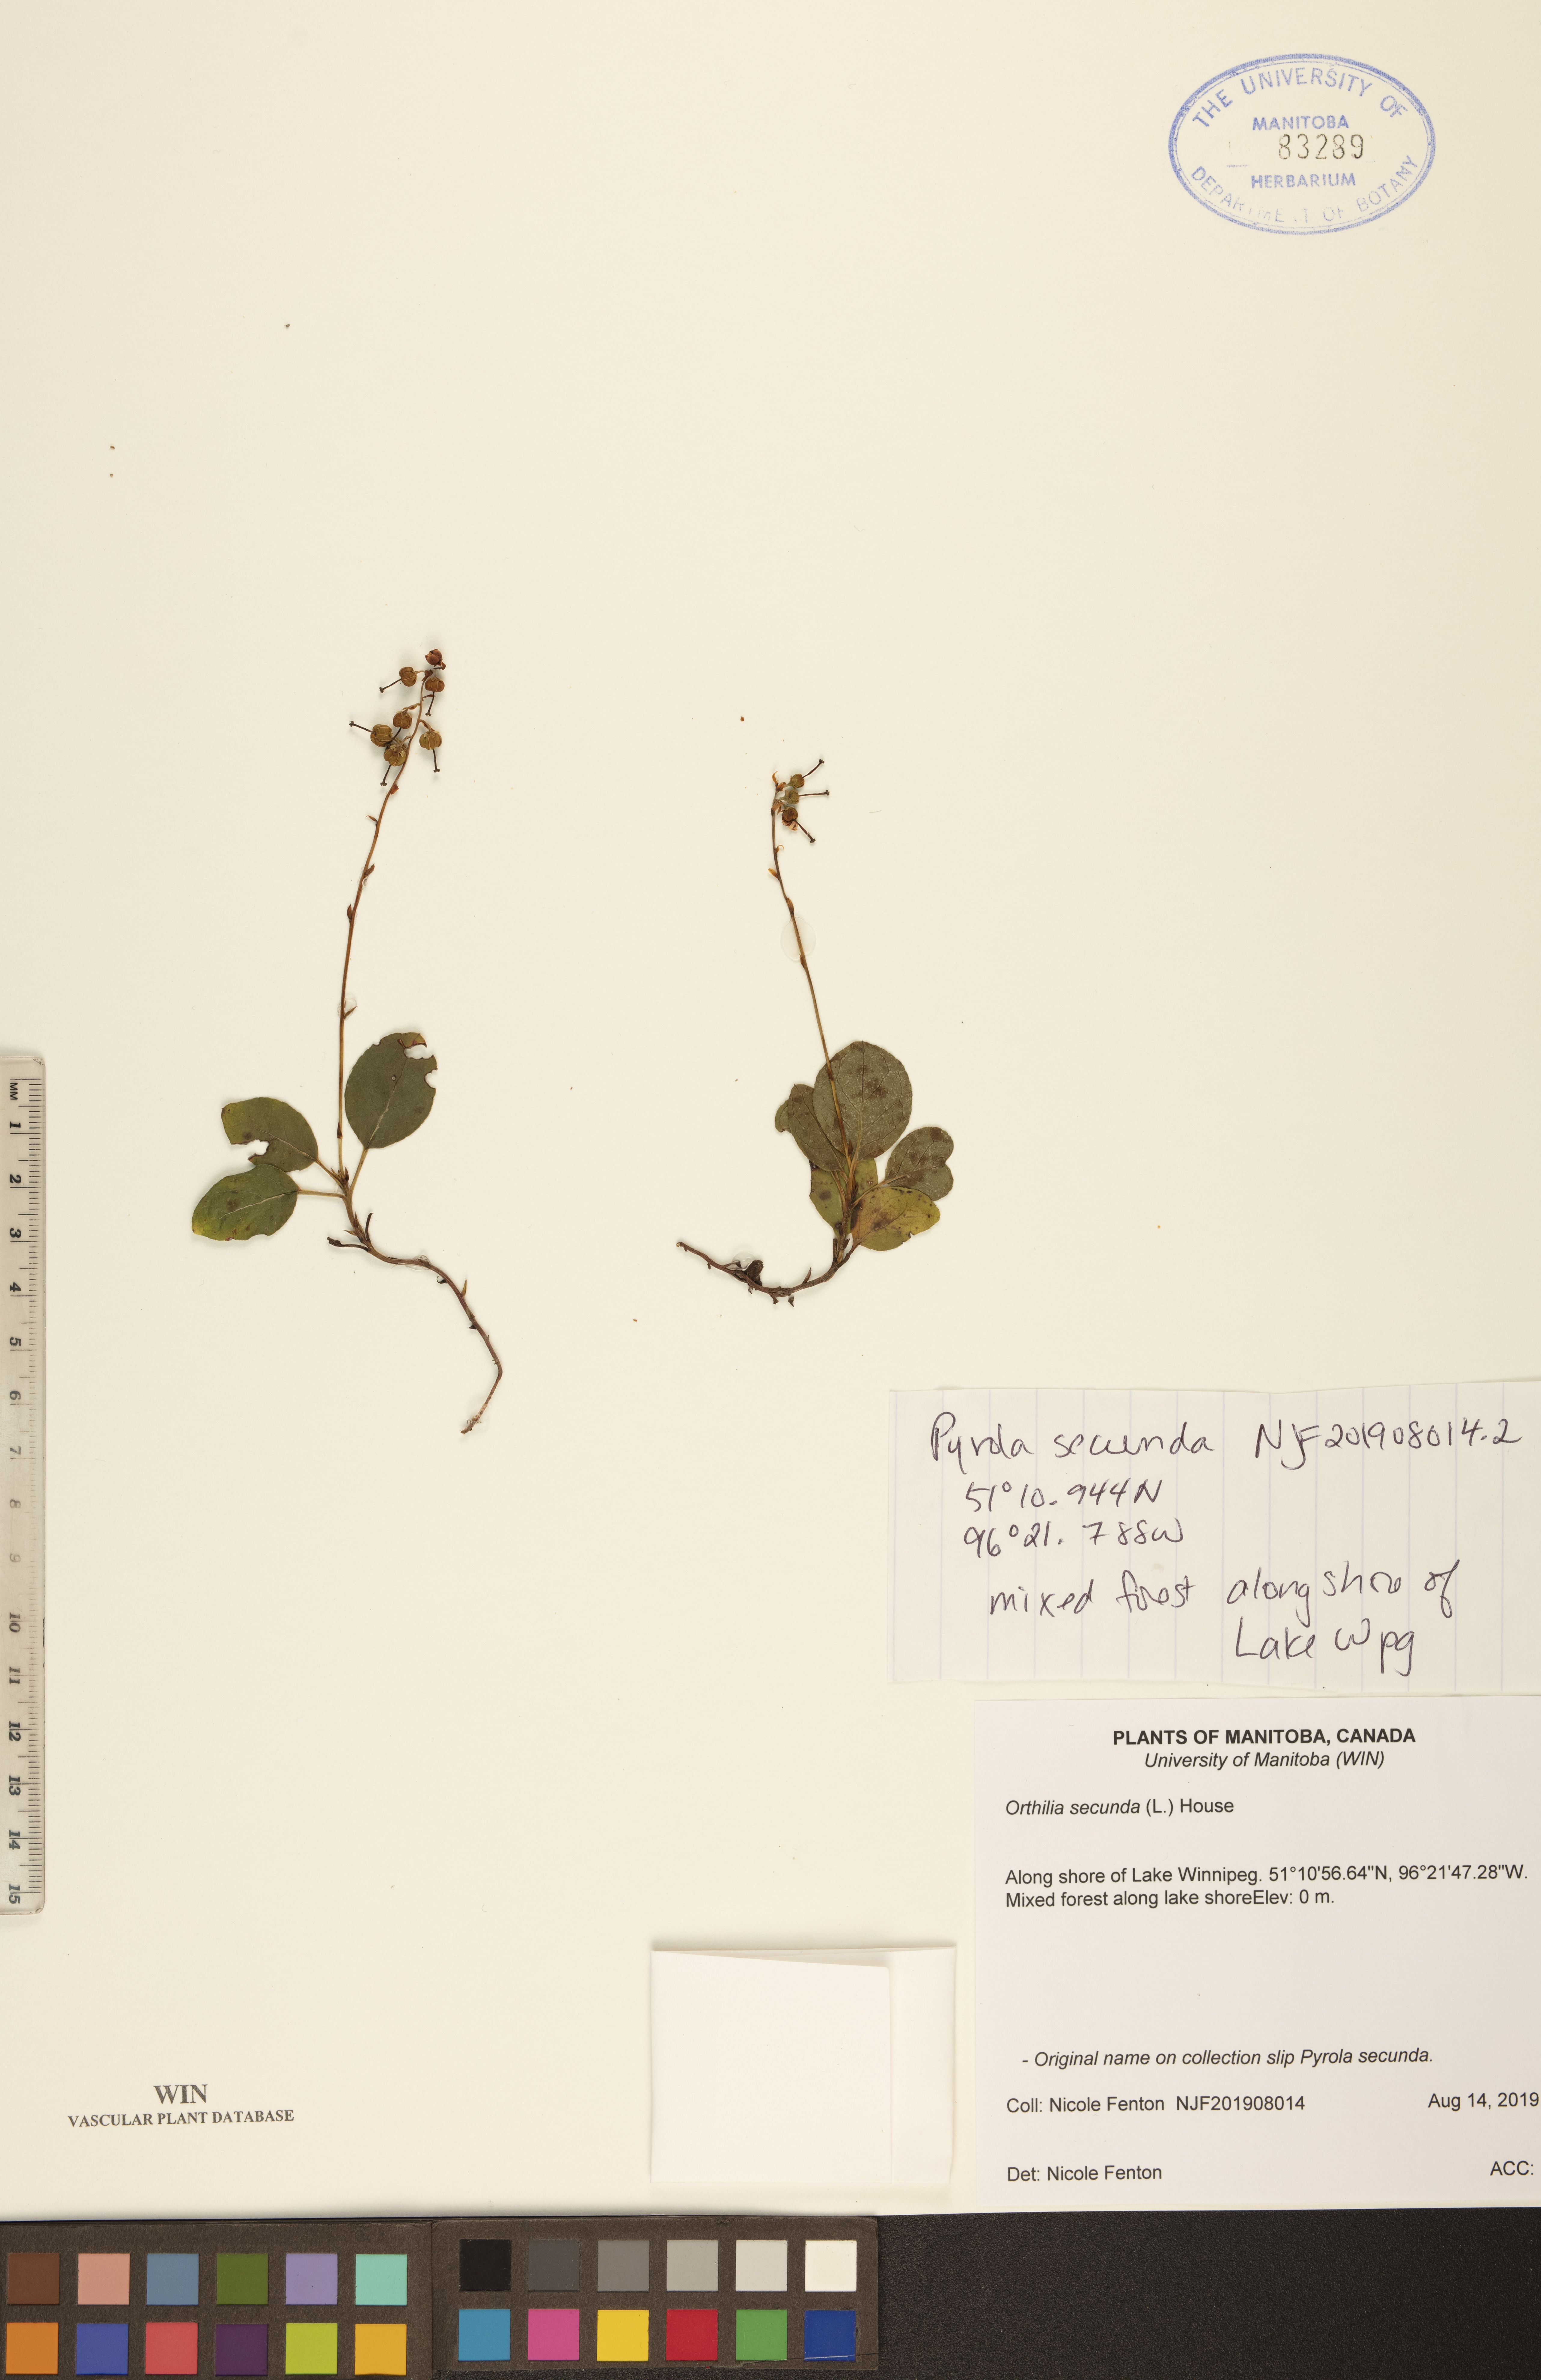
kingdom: Plantae
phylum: Tracheophyta
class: Magnoliopsida
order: Ericales
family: Ericaceae
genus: Orthilia
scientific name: Orthilia secunda
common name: One-sided orthilia
